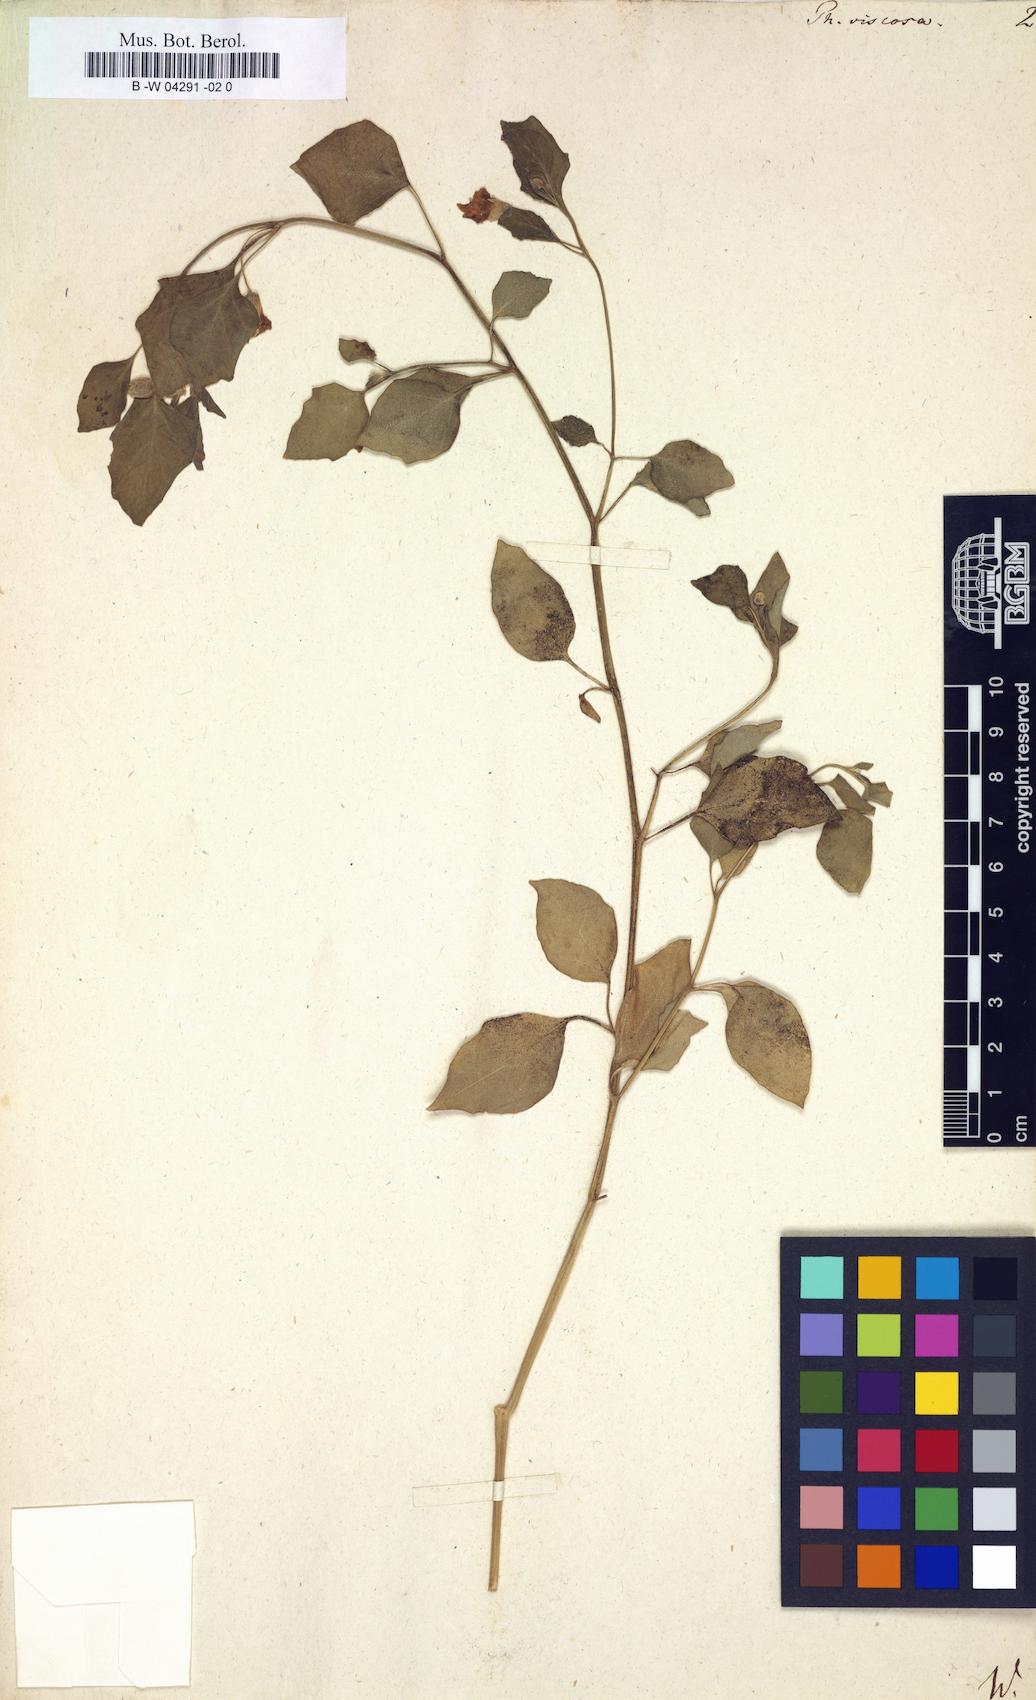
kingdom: Plantae
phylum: Tracheophyta
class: Magnoliopsida
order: Solanales
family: Solanaceae
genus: Physalis
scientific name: Physalis viscosa
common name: Stellate ground-cherry
